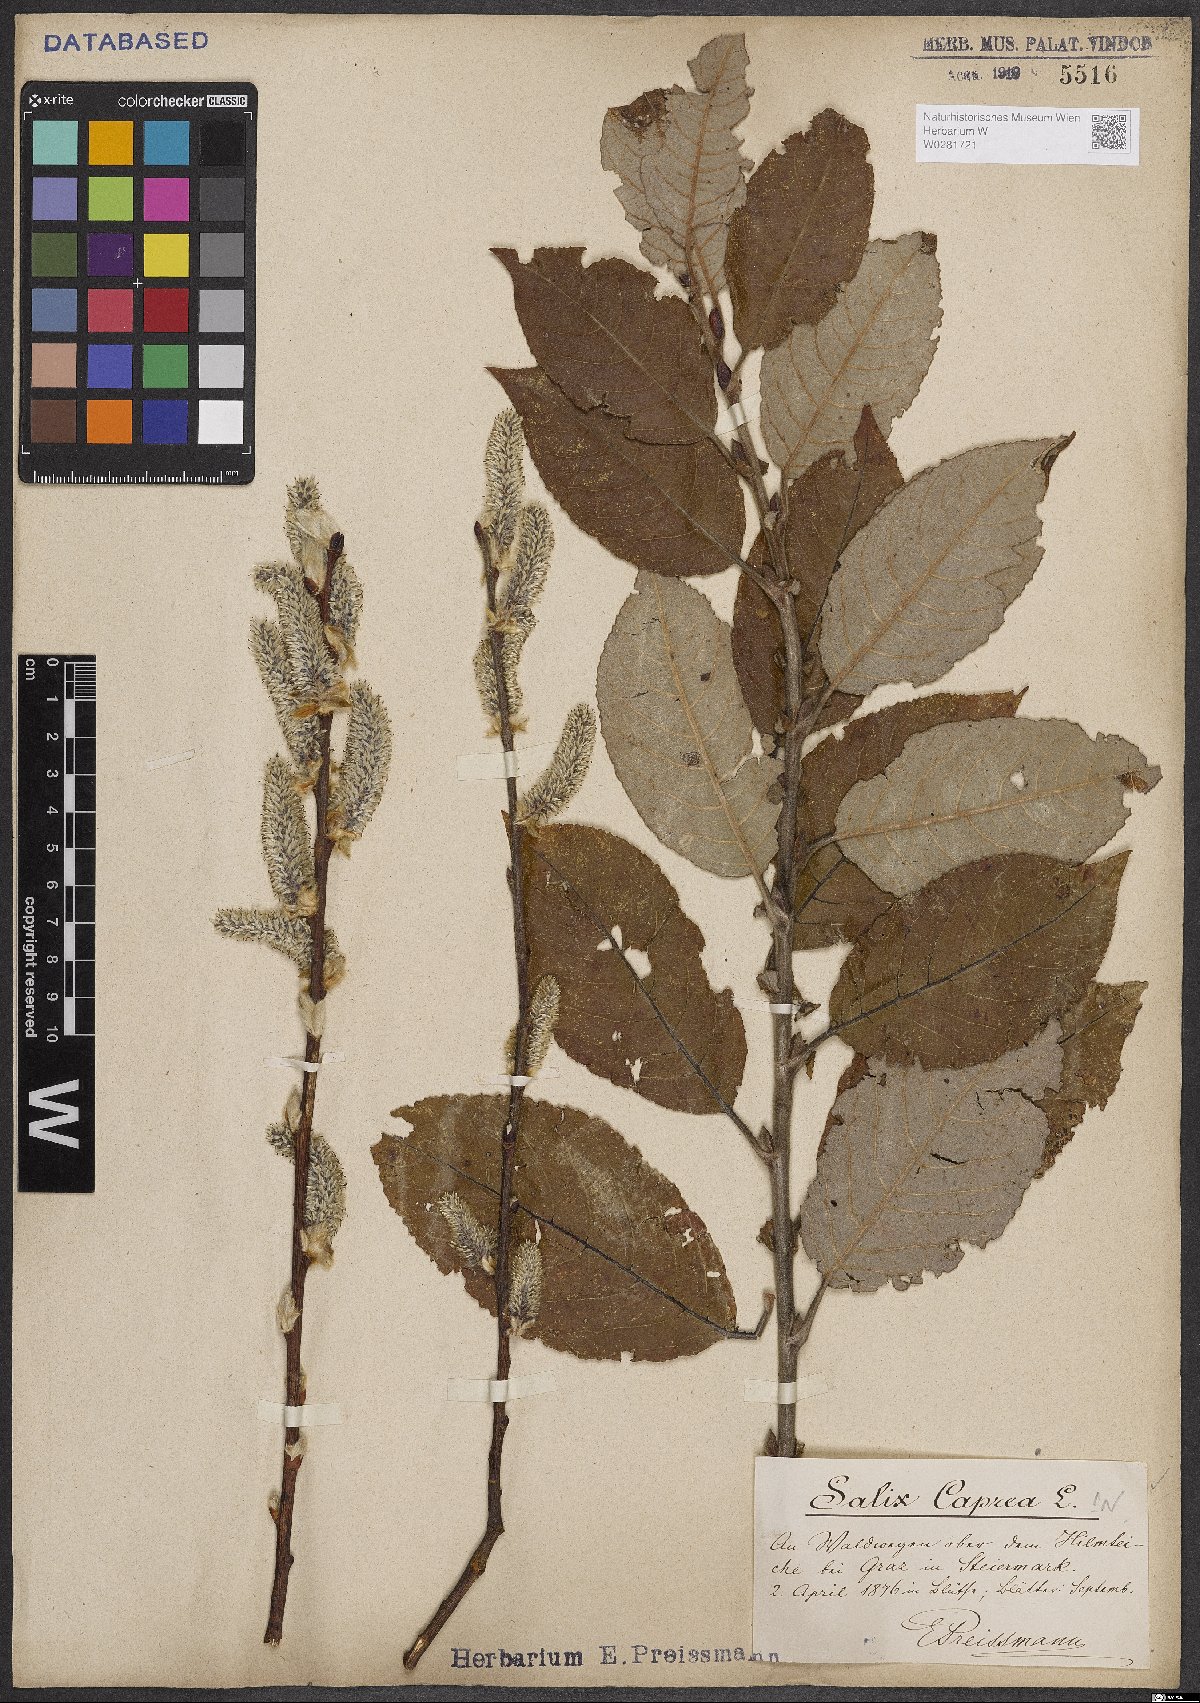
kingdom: Plantae
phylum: Tracheophyta
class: Magnoliopsida
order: Malpighiales
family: Salicaceae
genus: Salix
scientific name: Salix caprea
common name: Goat willow
